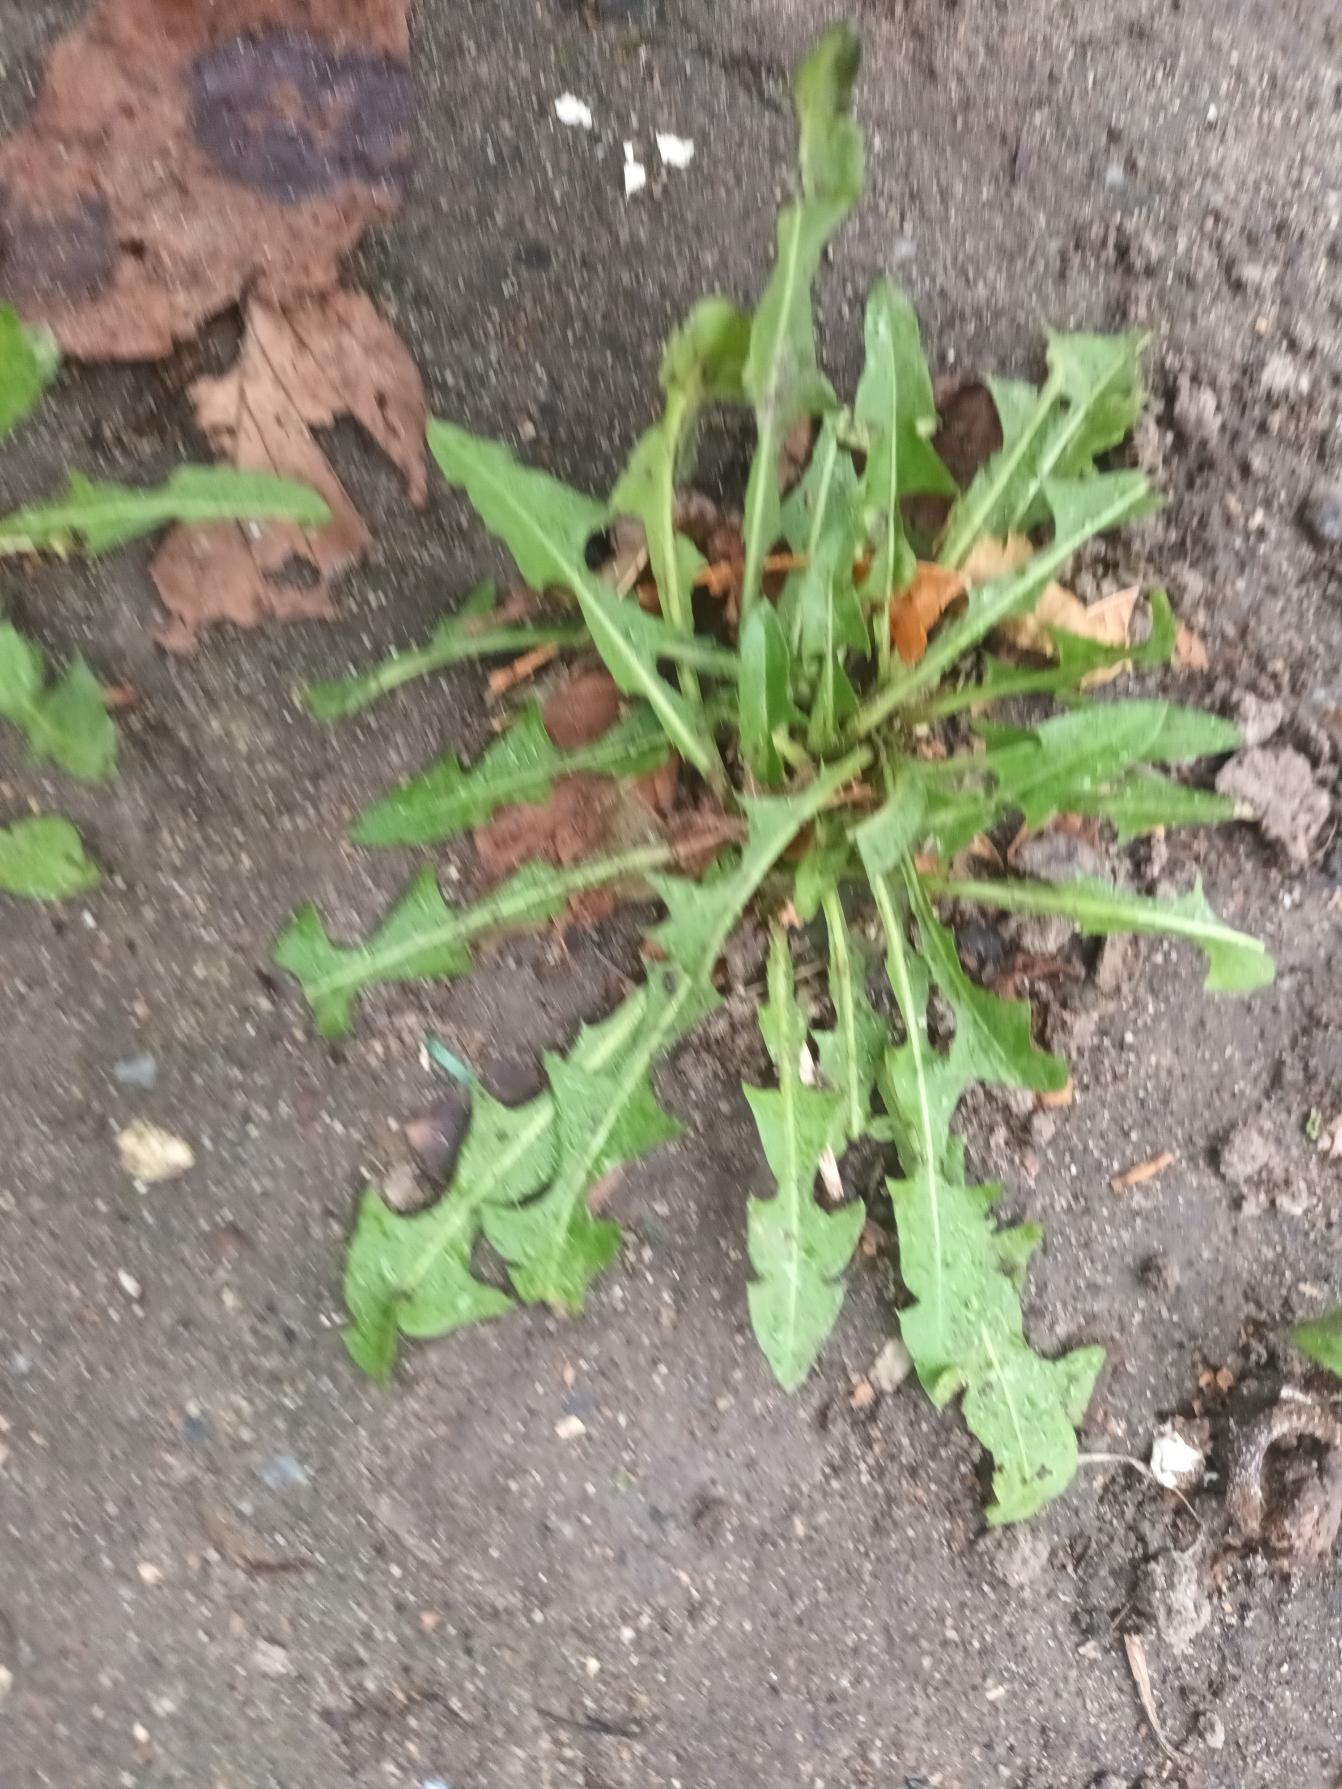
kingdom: Plantae
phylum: Tracheophyta
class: Magnoliopsida
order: Asterales
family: Asteraceae
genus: Taraxacum
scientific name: Taraxacum
